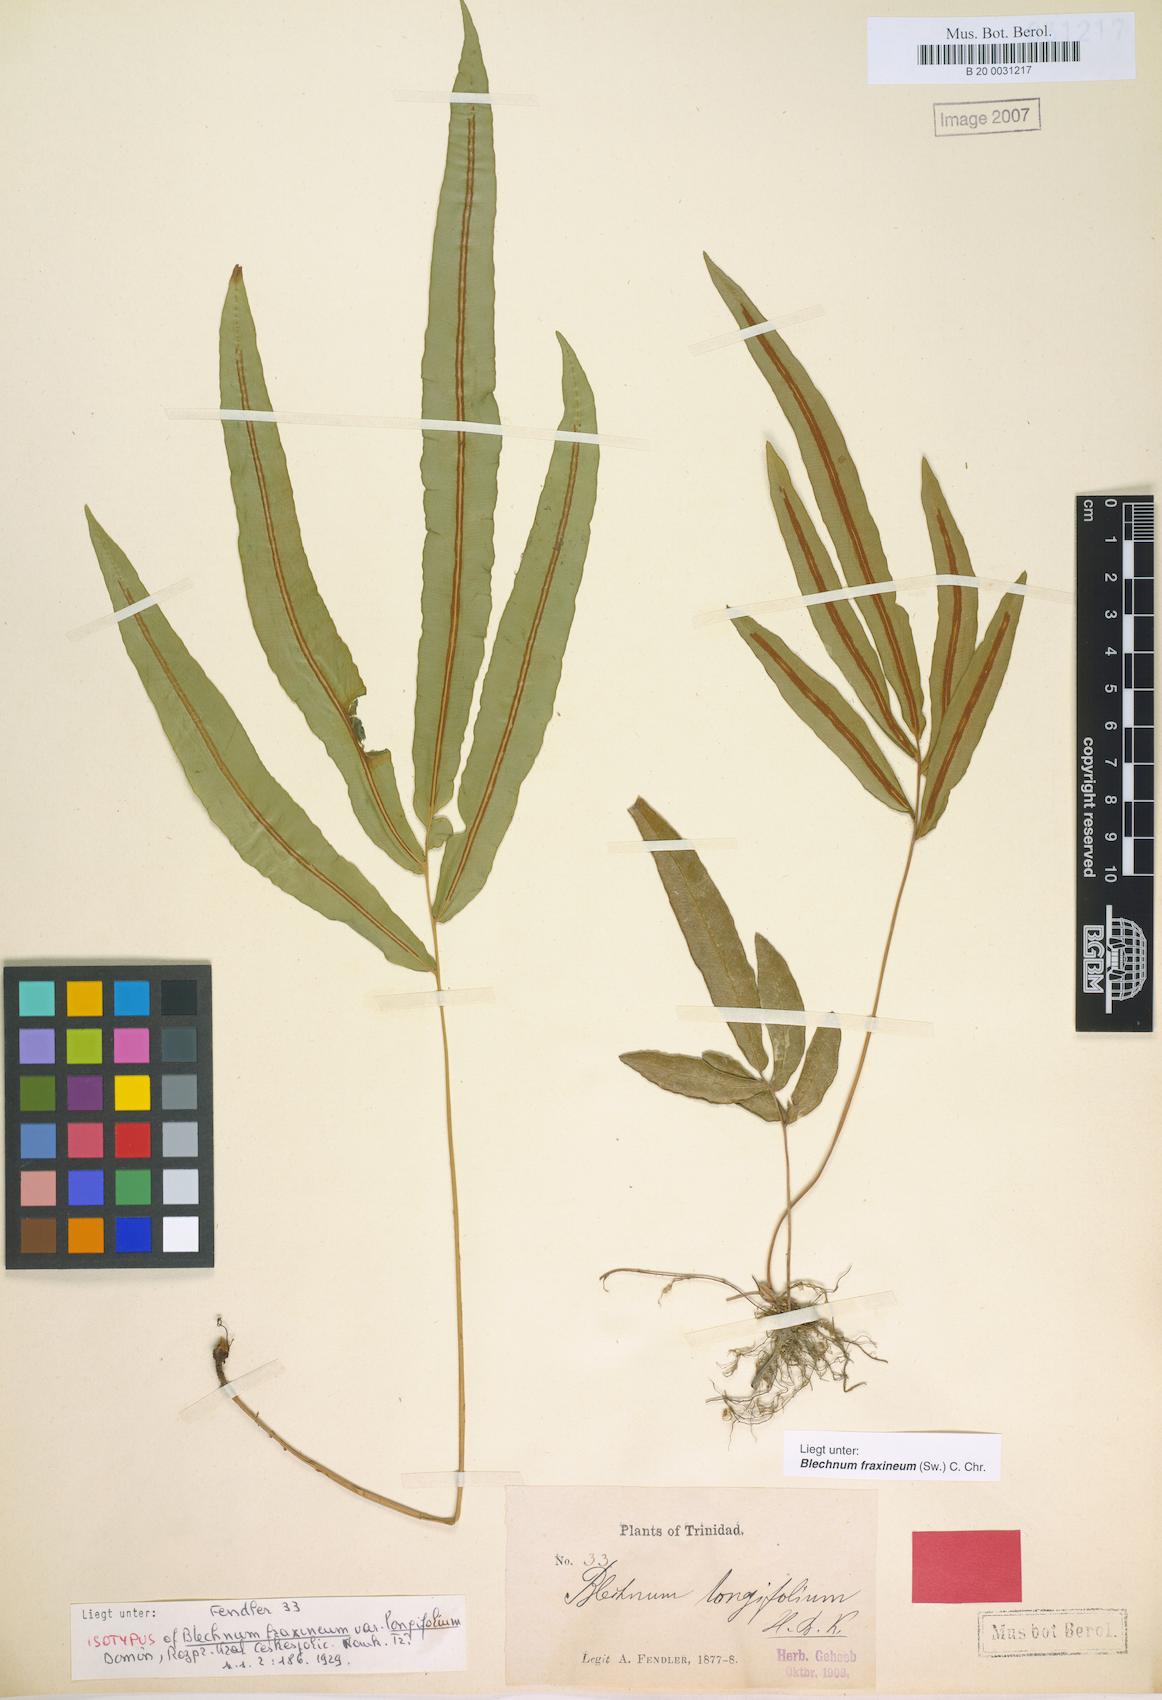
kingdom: Plantae
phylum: Tracheophyta
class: Polypodiopsida
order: Polypodiales
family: Blechnaceae
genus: Blechnum
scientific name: Blechnum gracile
